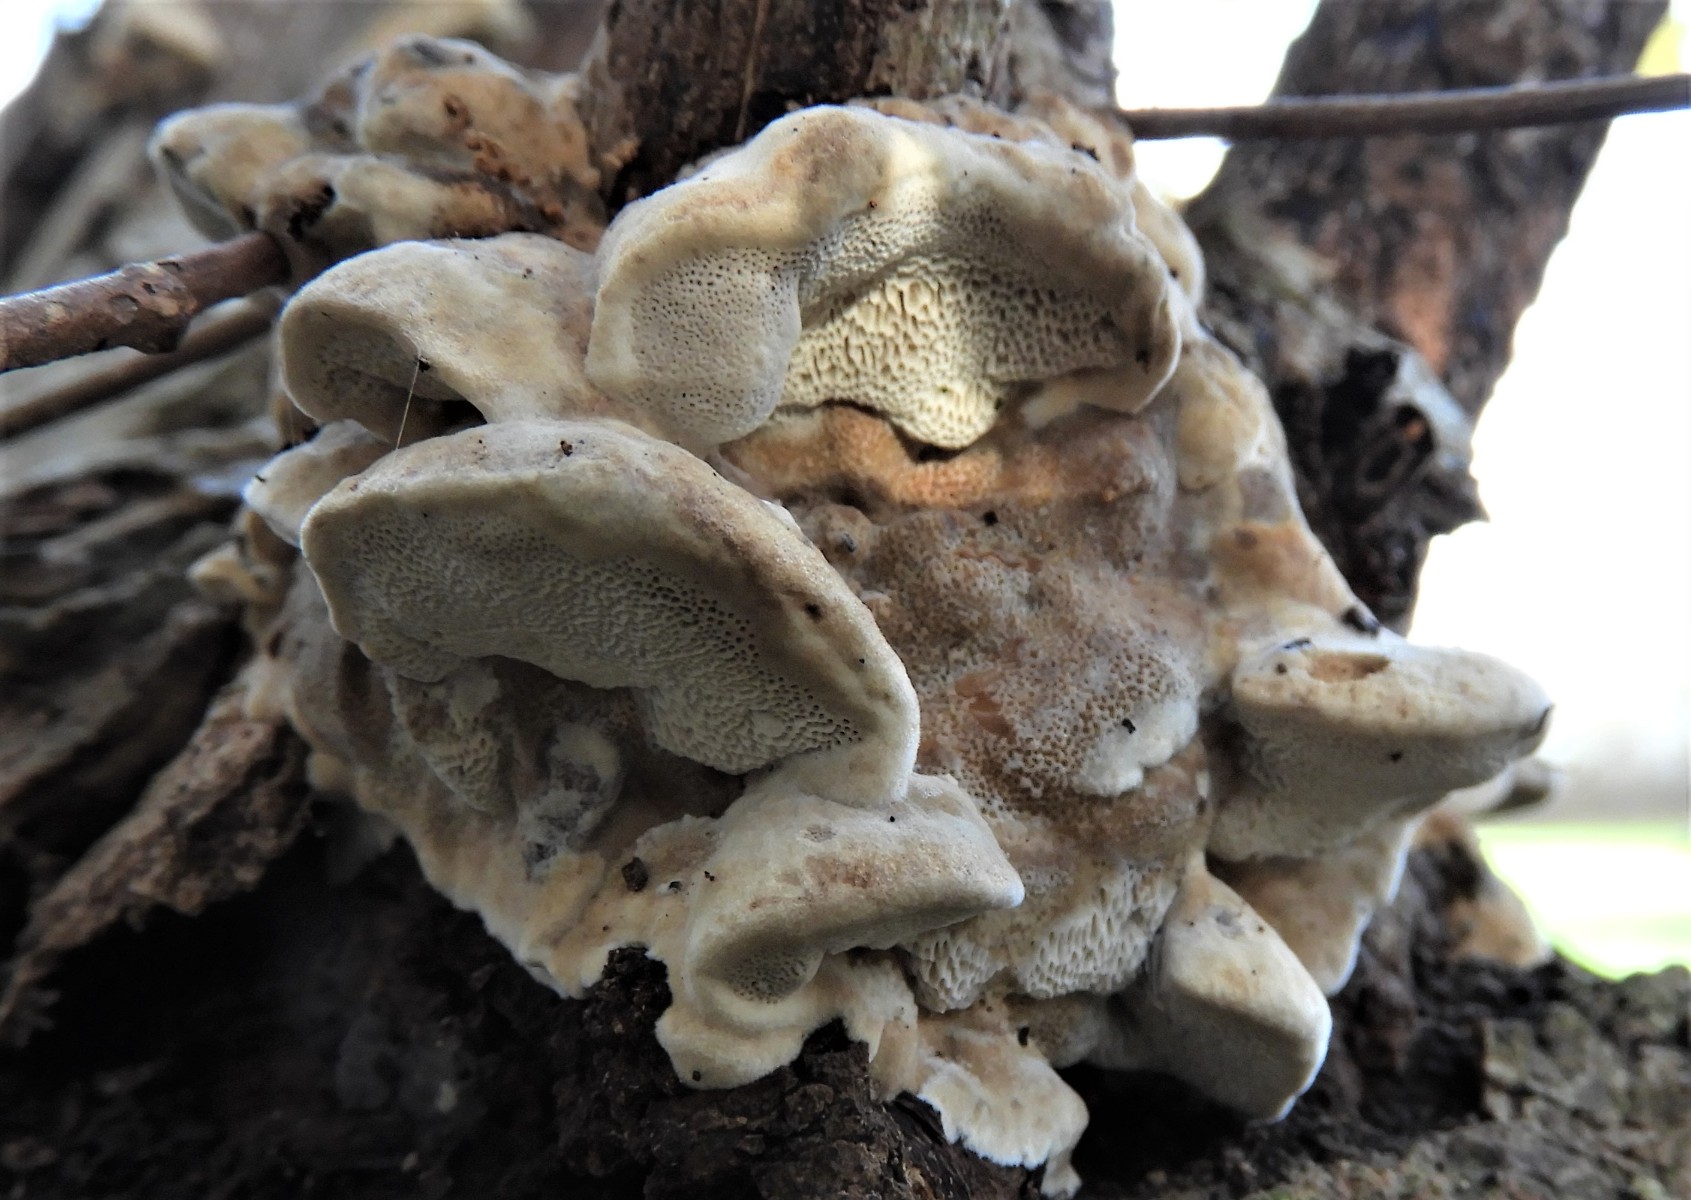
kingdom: Fungi
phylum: Basidiomycota
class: Agaricomycetes
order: Polyporales
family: Phanerochaetaceae
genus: Bjerkandera
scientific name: Bjerkandera fumosa
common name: grågul sodporesvamp
